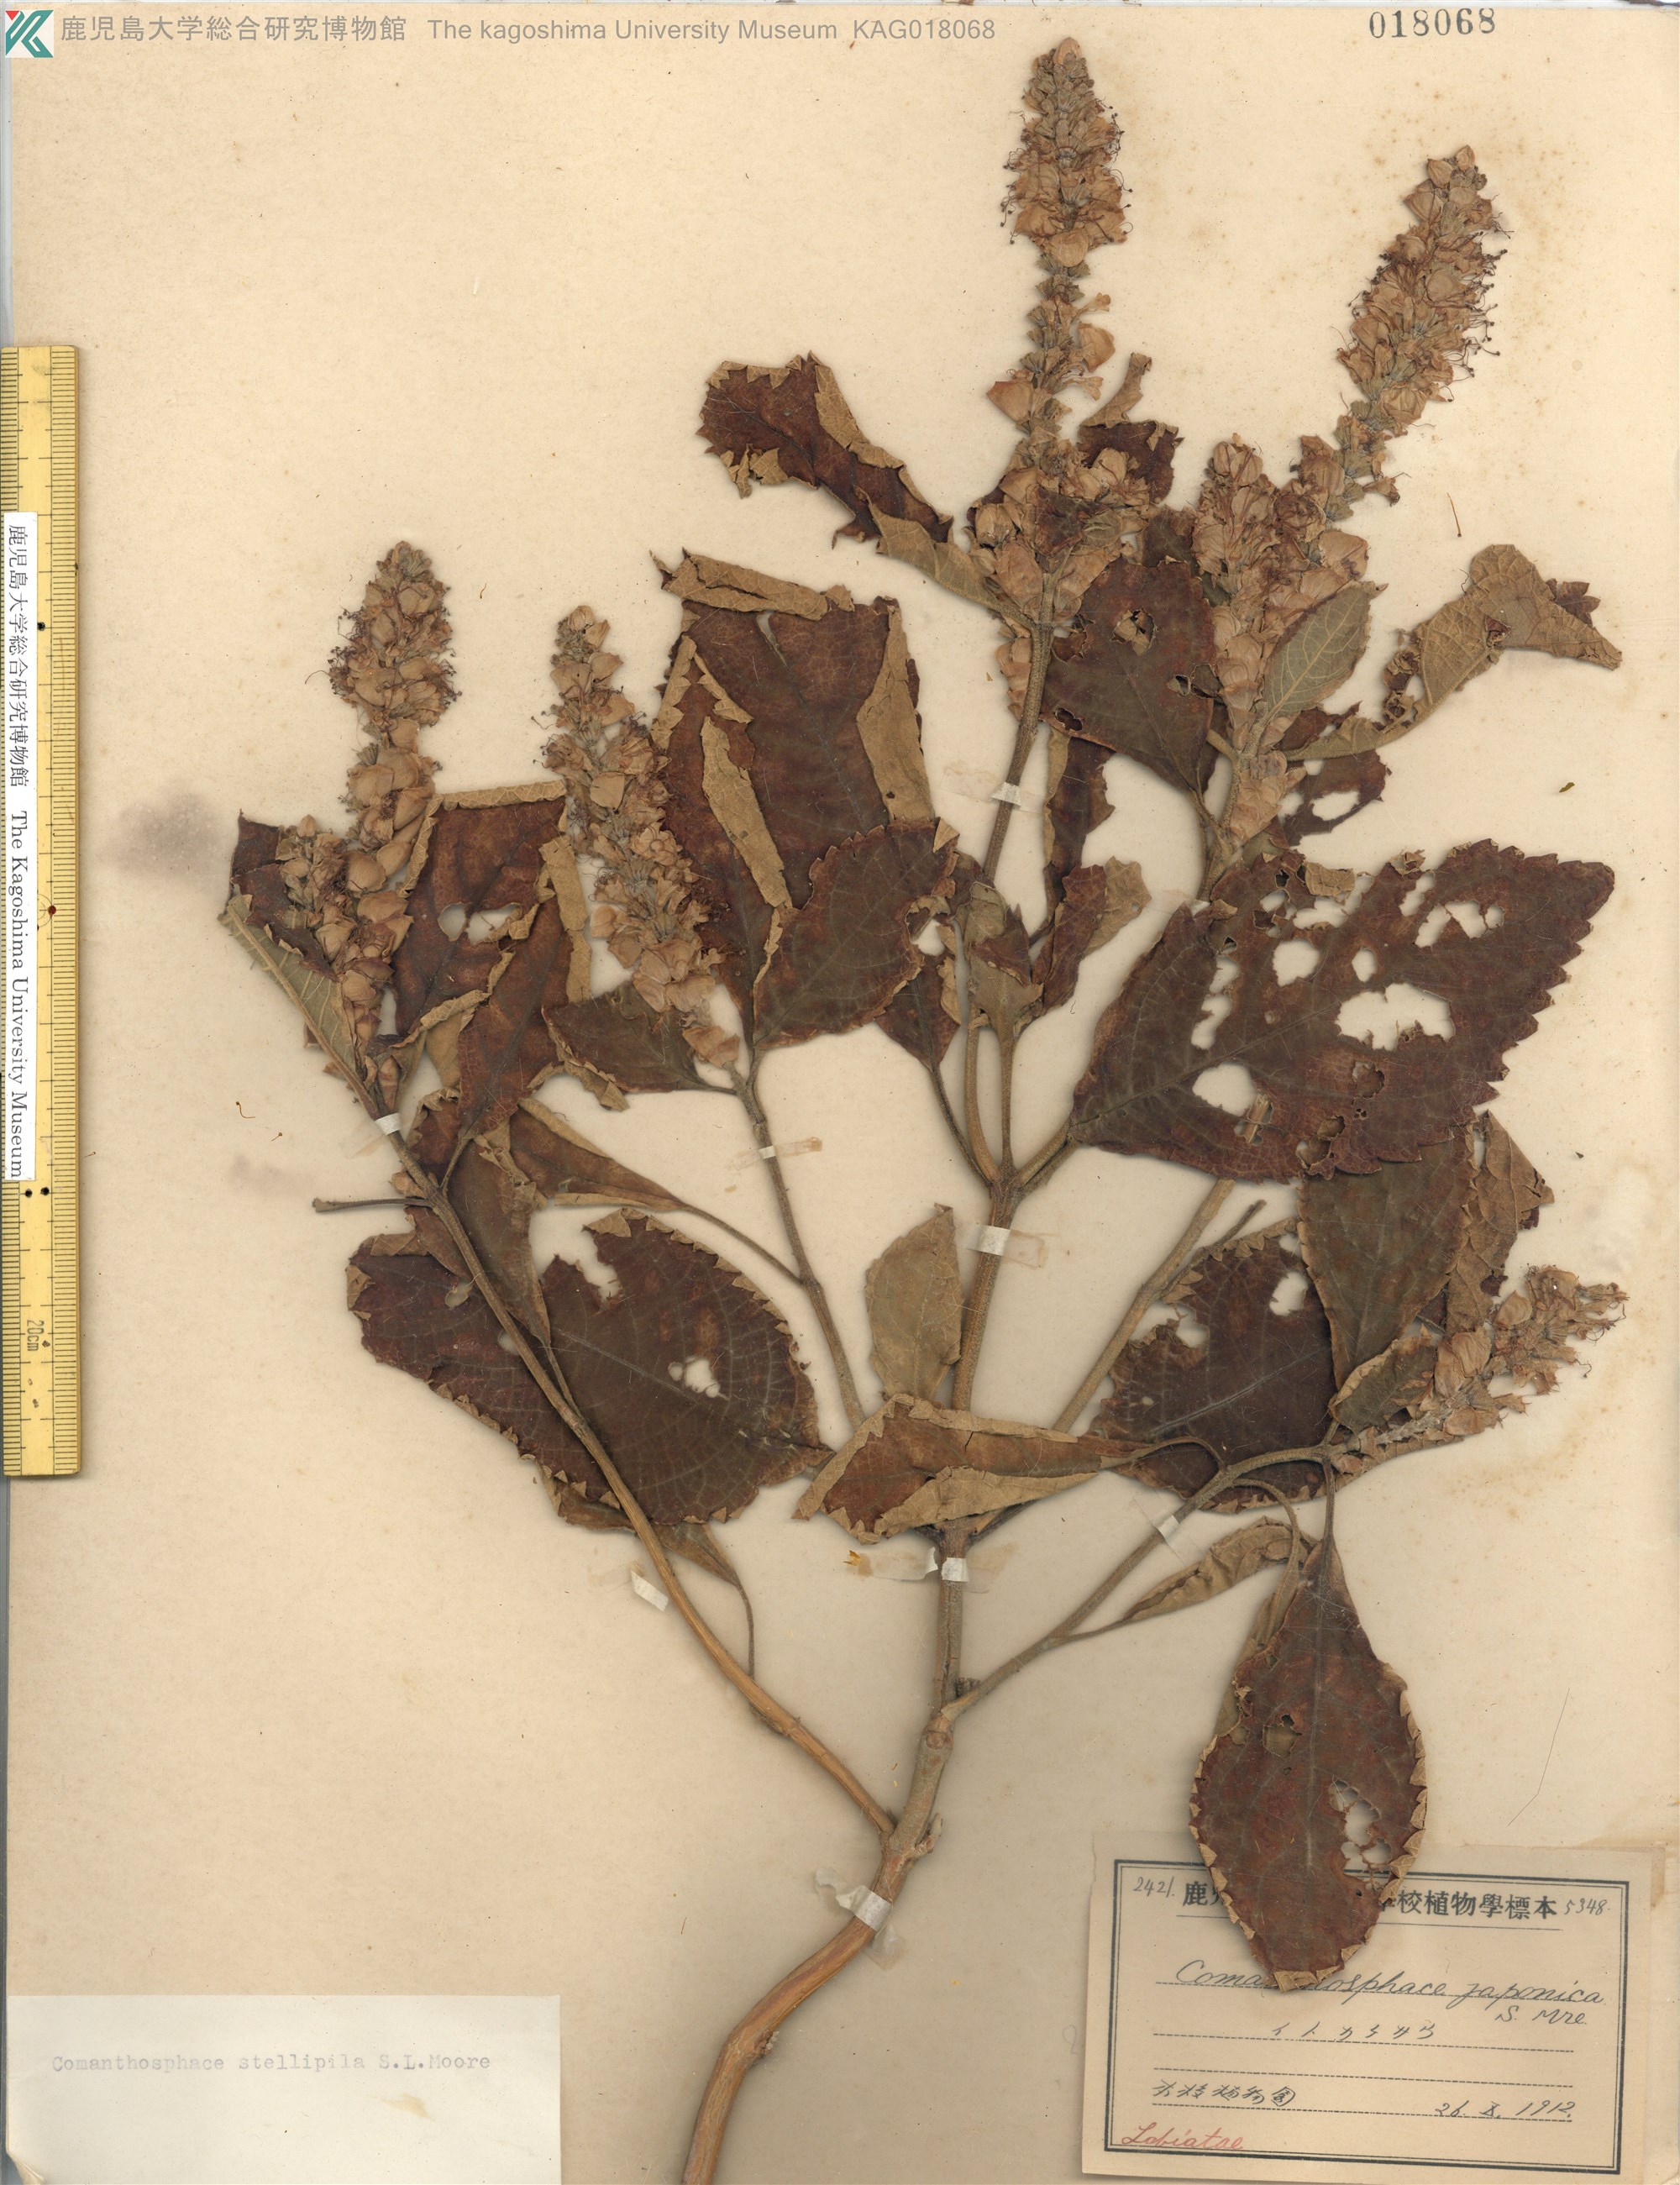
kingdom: Plantae
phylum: Tracheophyta
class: Magnoliopsida
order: Lamiales
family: Lamiaceae
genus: Comanthosphace
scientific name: Comanthosphace stellipila
